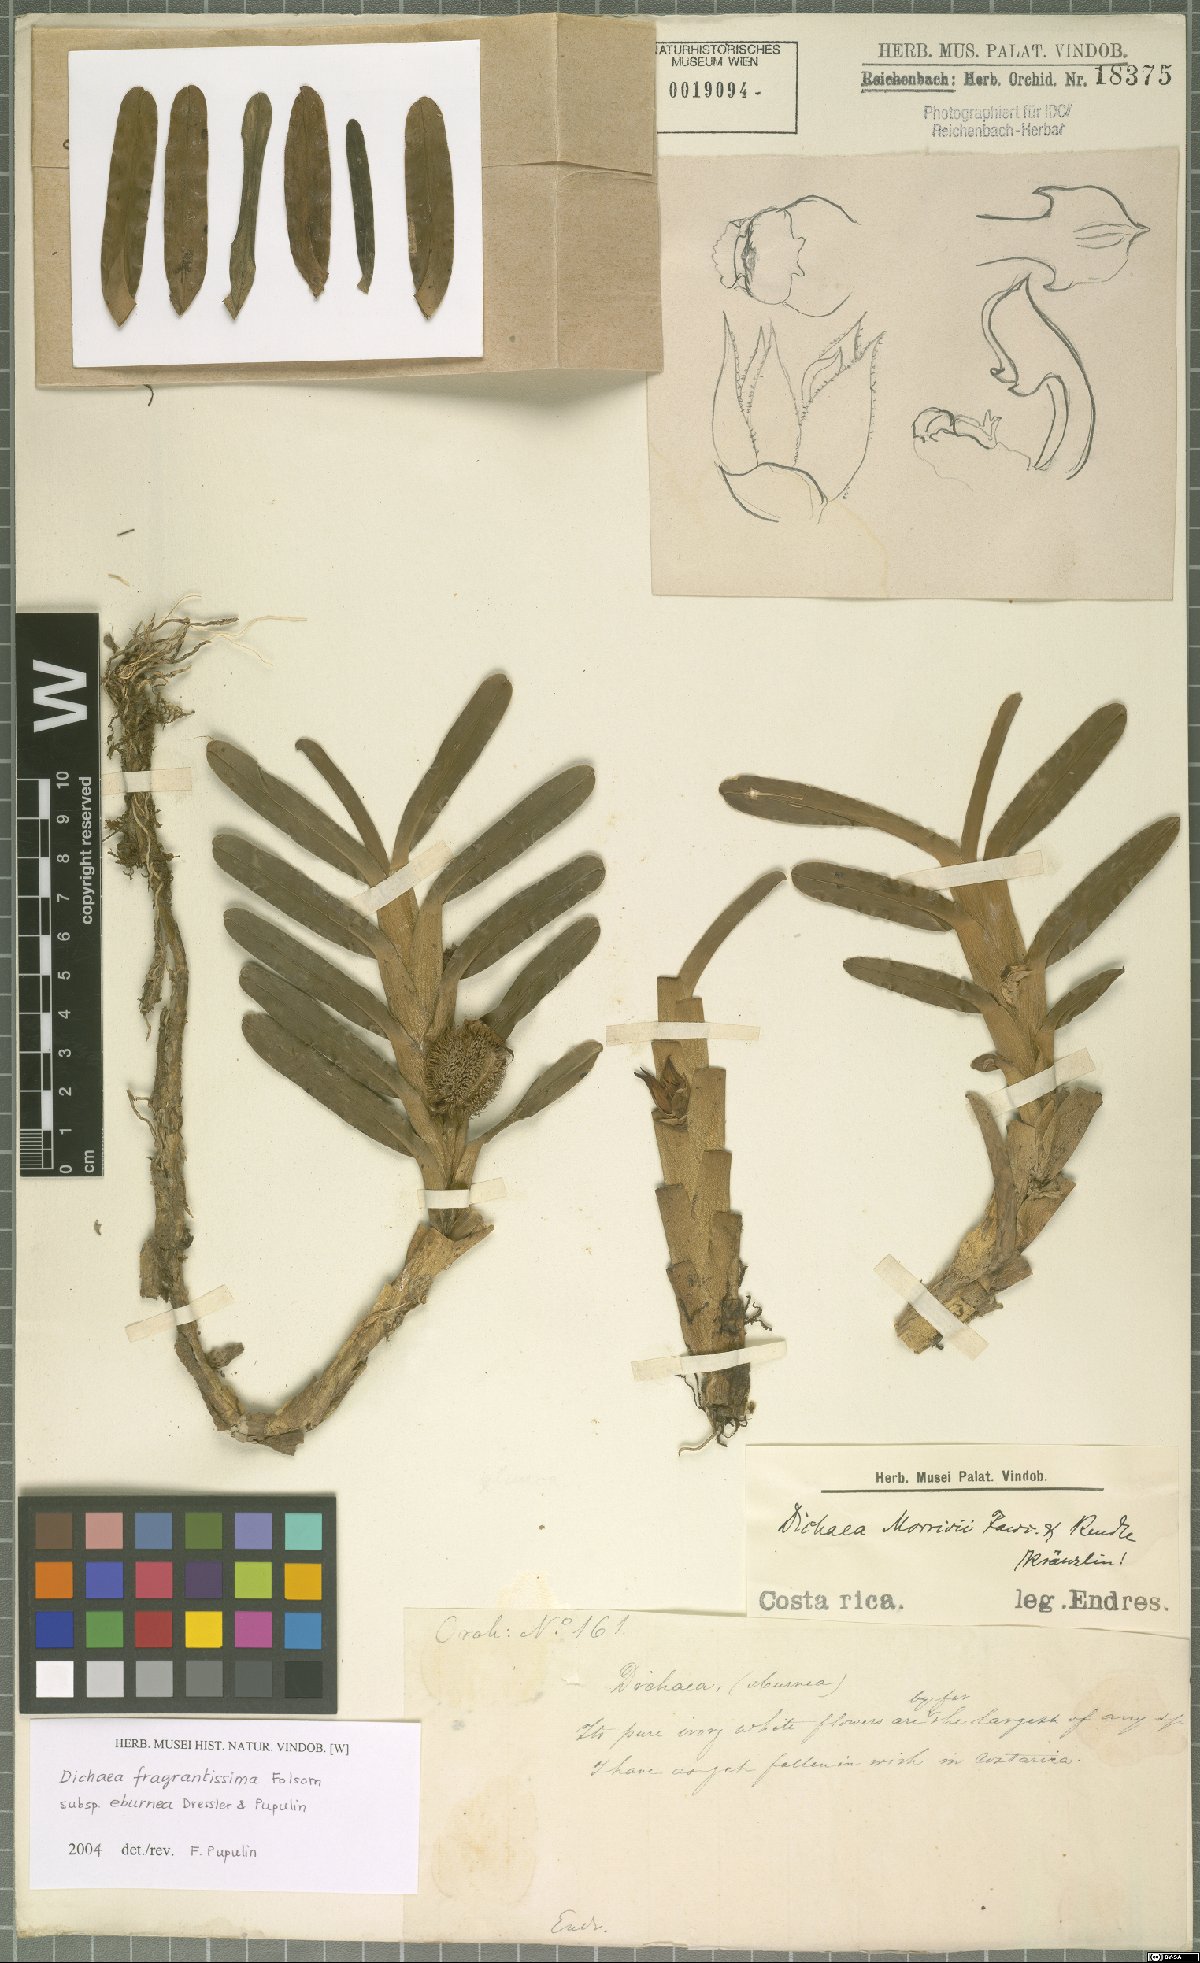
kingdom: Plantae
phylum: Tracheophyta
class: Liliopsida
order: Asparagales
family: Orchidaceae
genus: Dichaea
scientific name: Dichaea eburnea
